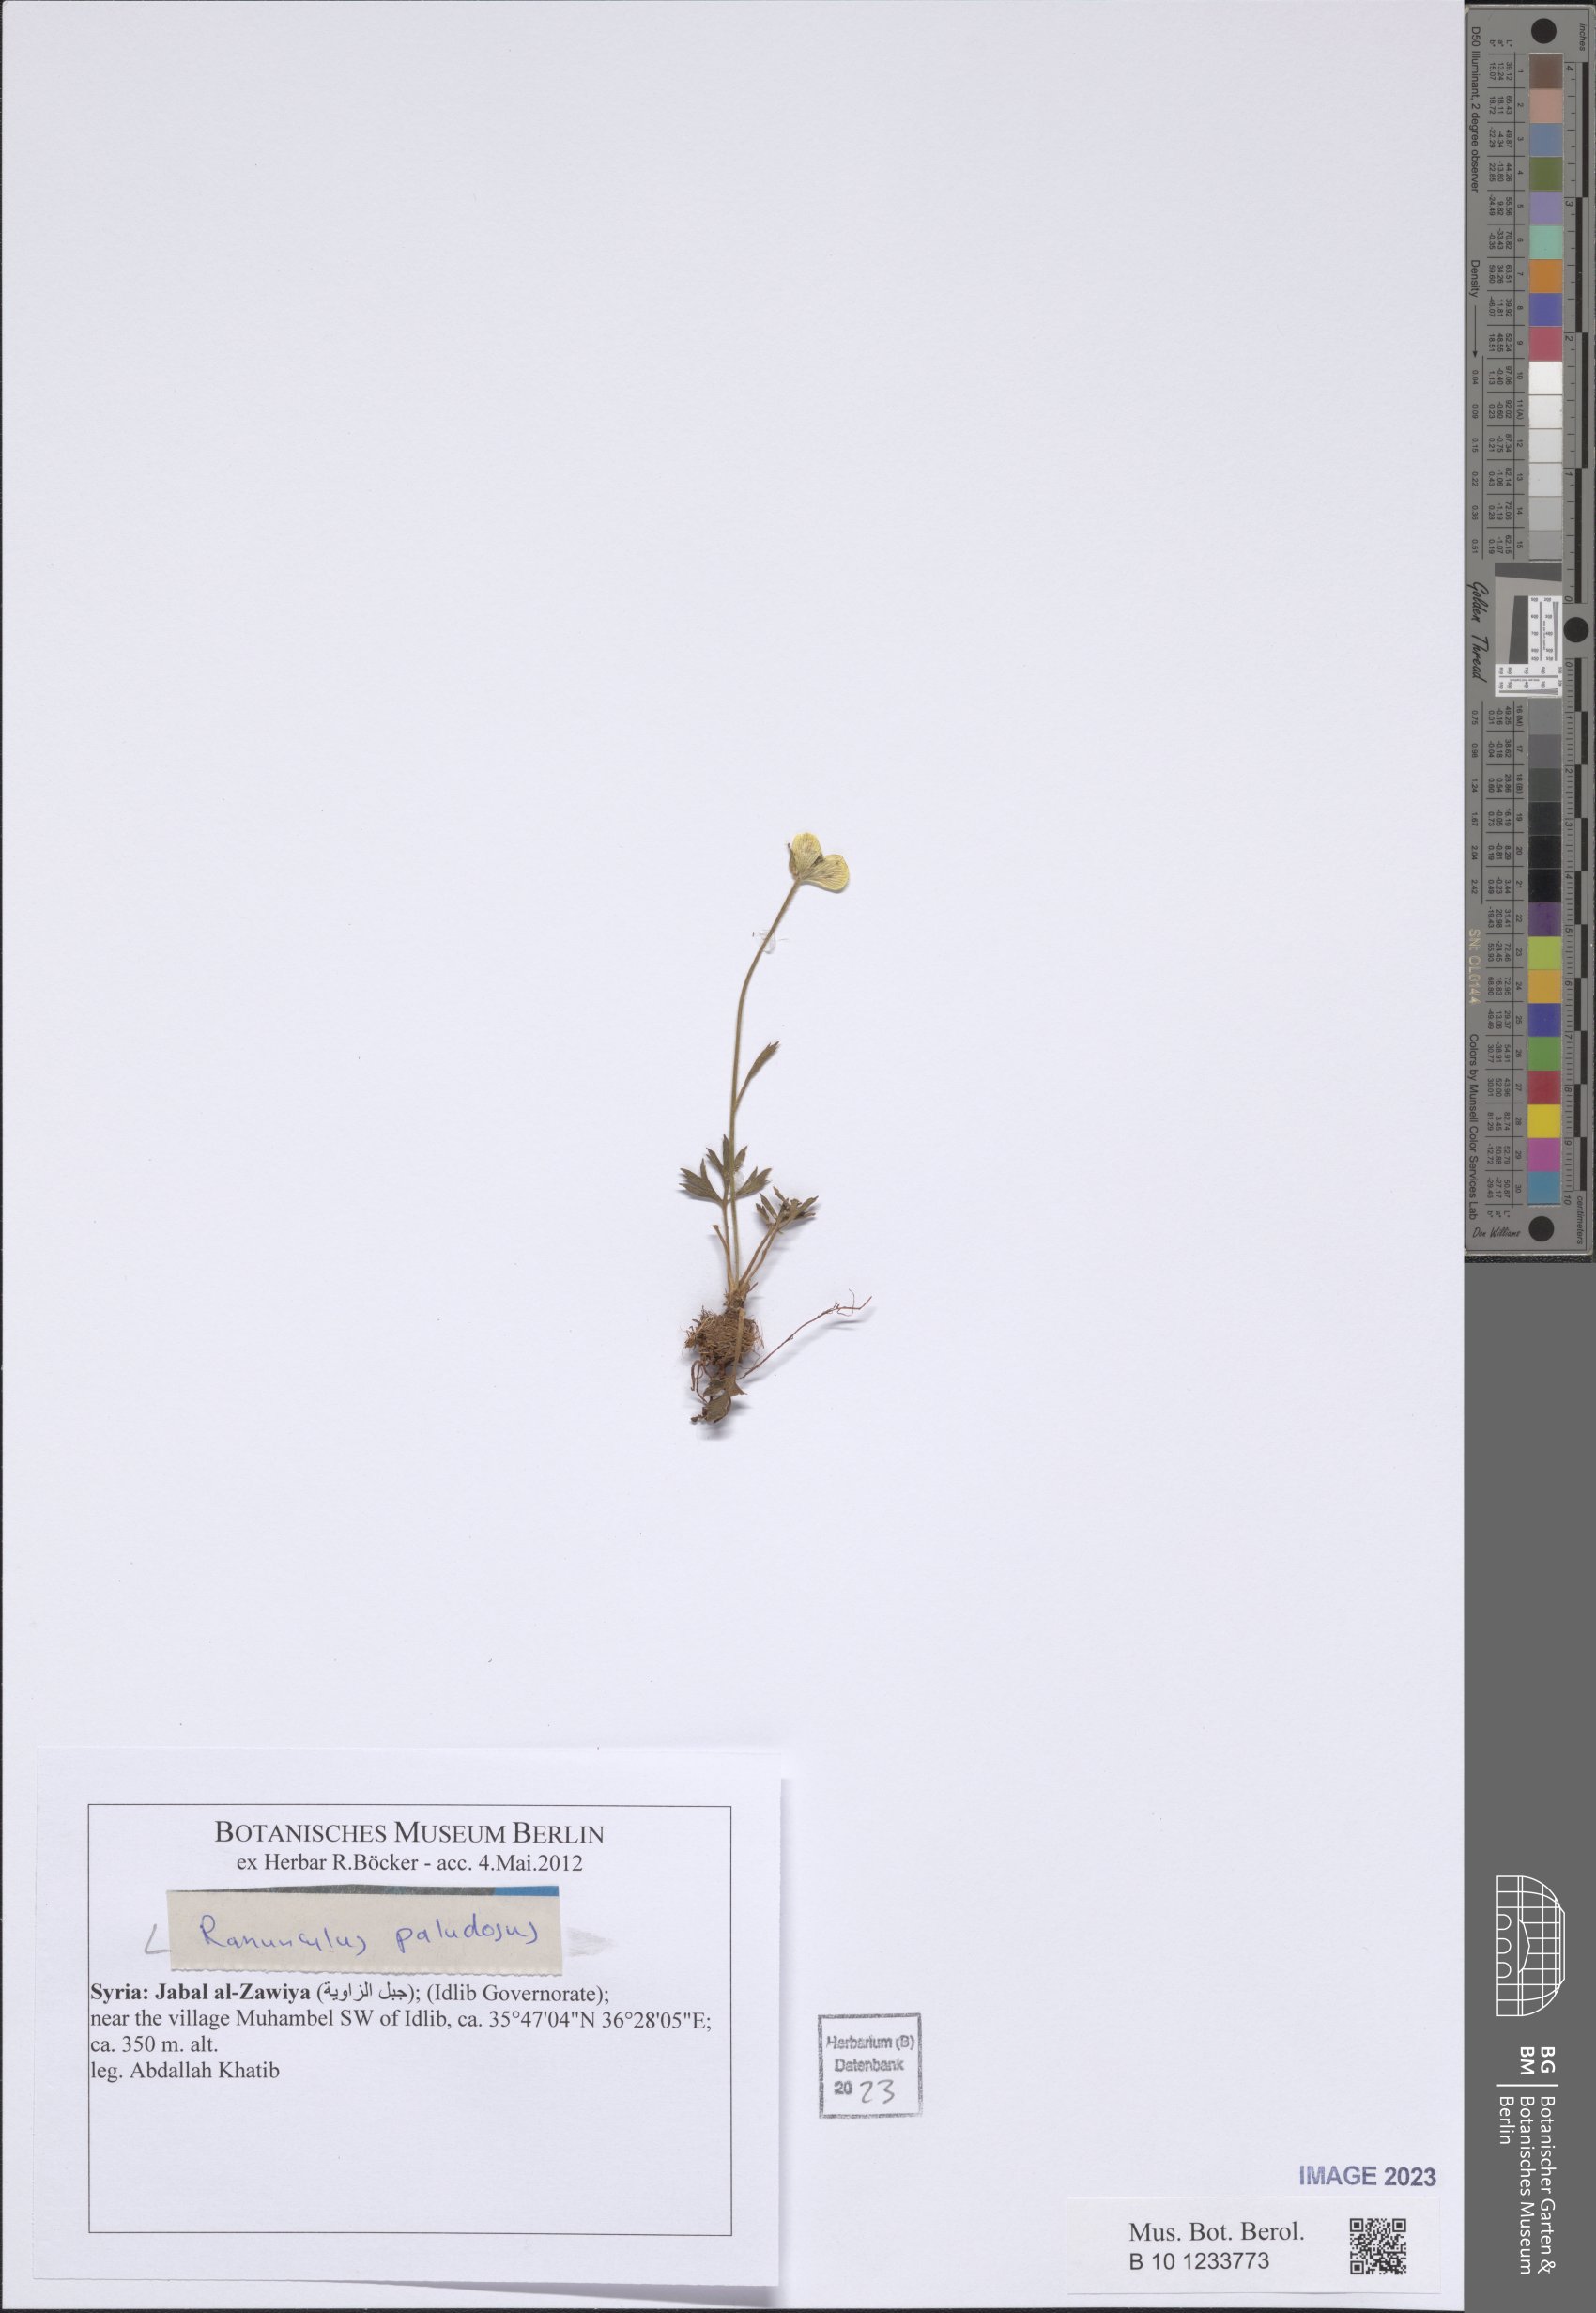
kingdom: Plantae
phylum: Tracheophyta
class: Magnoliopsida
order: Ranunculales
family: Ranunculaceae
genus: Ranunculus
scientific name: Ranunculus paludosus
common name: Jersey buttercup
